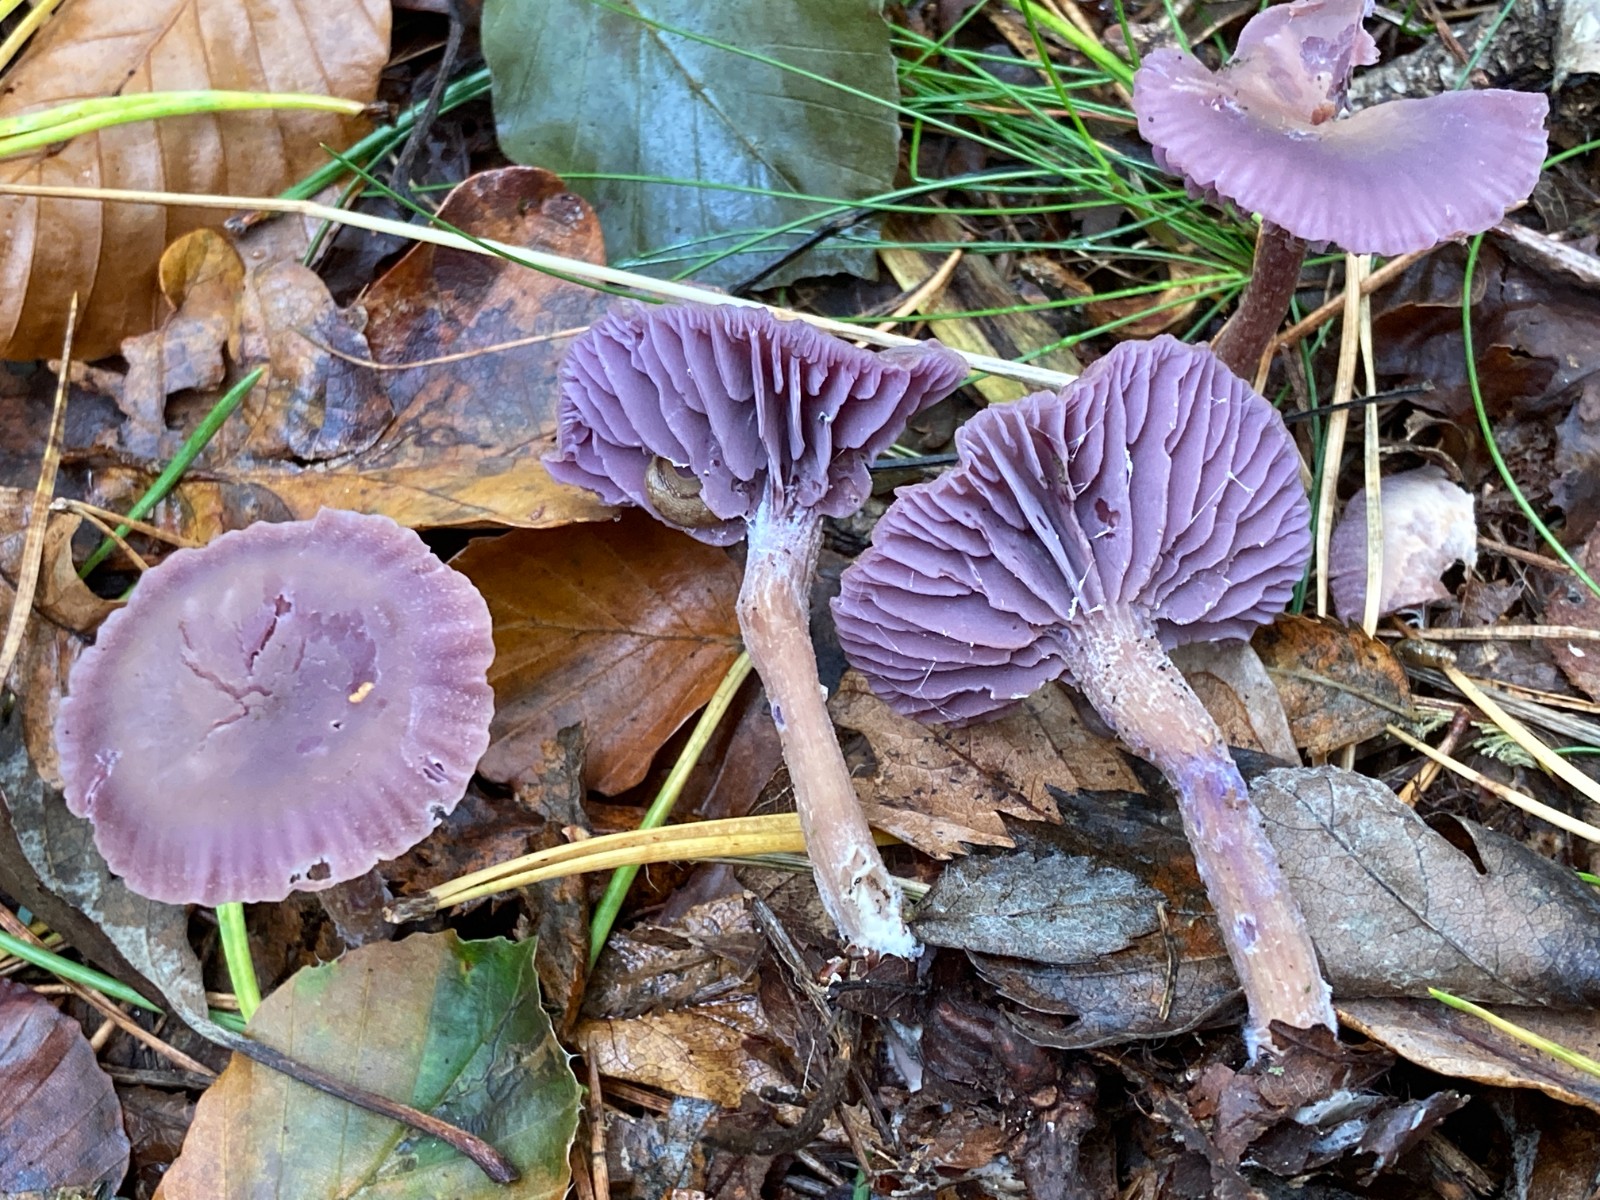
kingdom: Fungi
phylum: Basidiomycota
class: Agaricomycetes
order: Agaricales
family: Hydnangiaceae
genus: Laccaria
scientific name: Laccaria amethystina
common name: violet ametysthat
